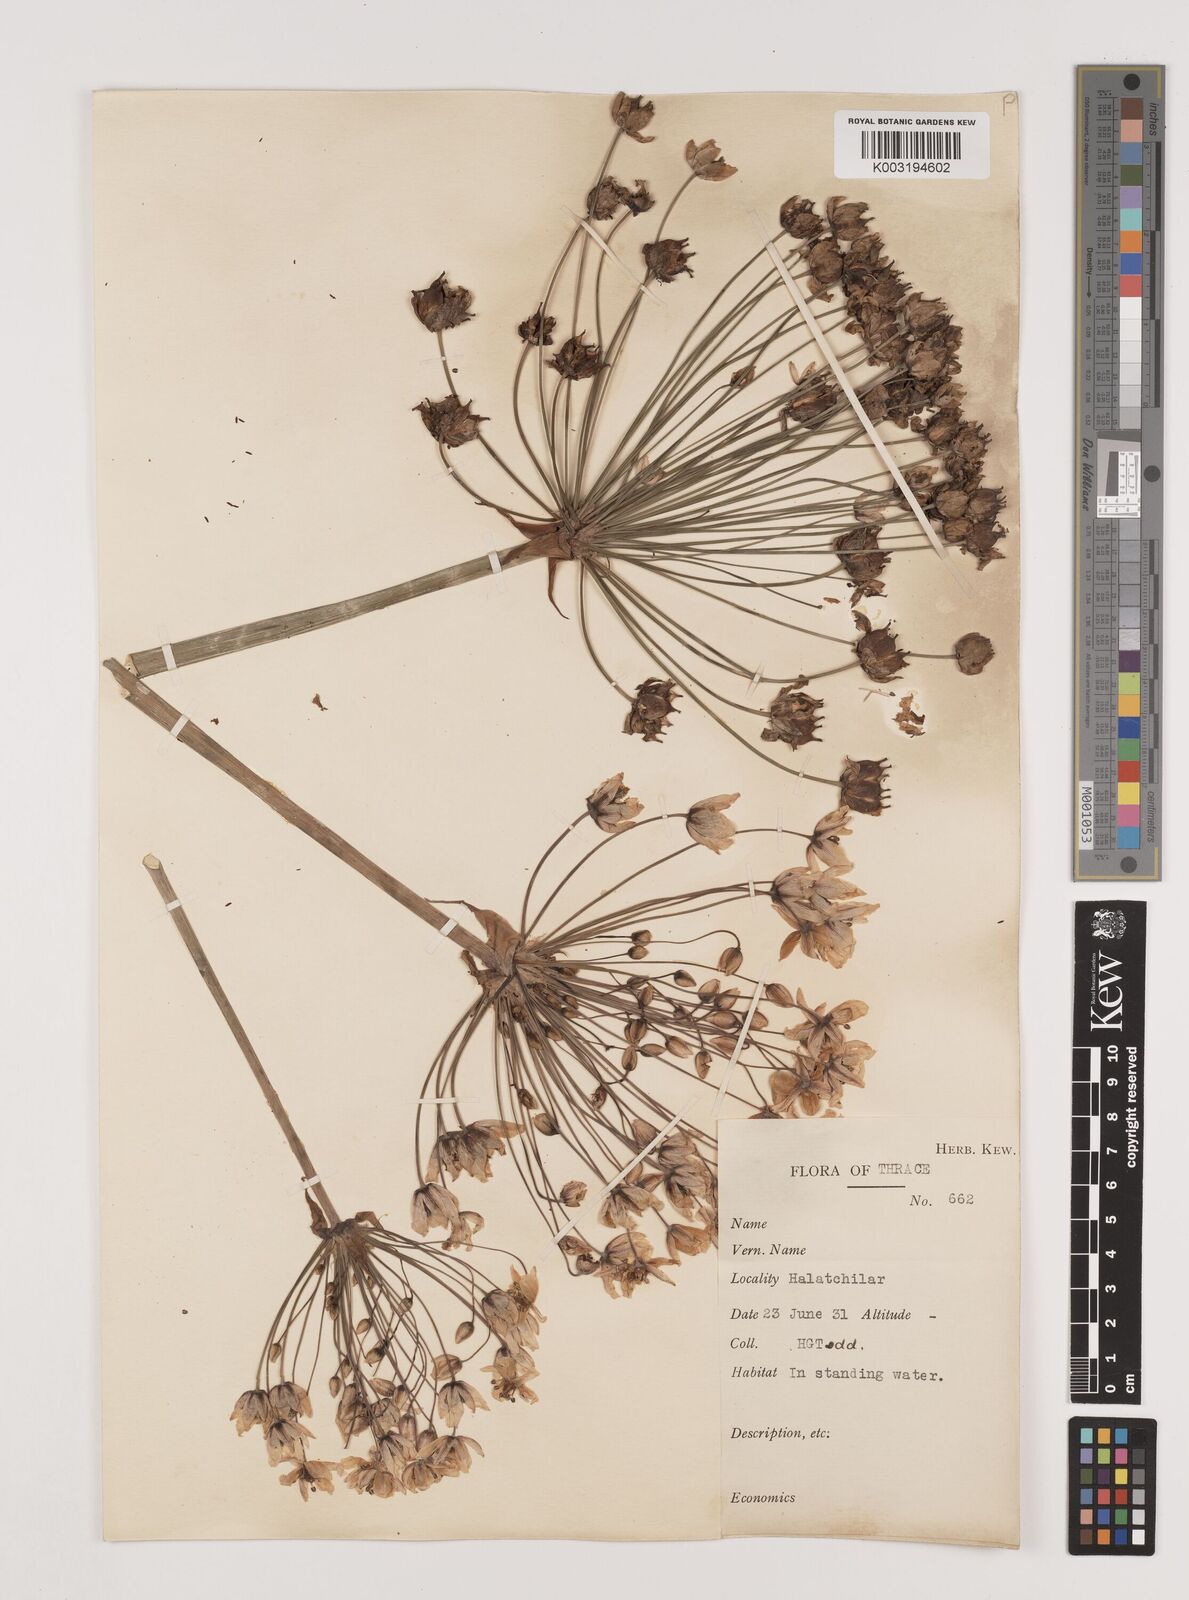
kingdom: Plantae
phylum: Tracheophyta
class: Liliopsida
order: Alismatales
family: Butomaceae
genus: Butomus
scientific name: Butomus umbellatus
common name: Flowering-rush
